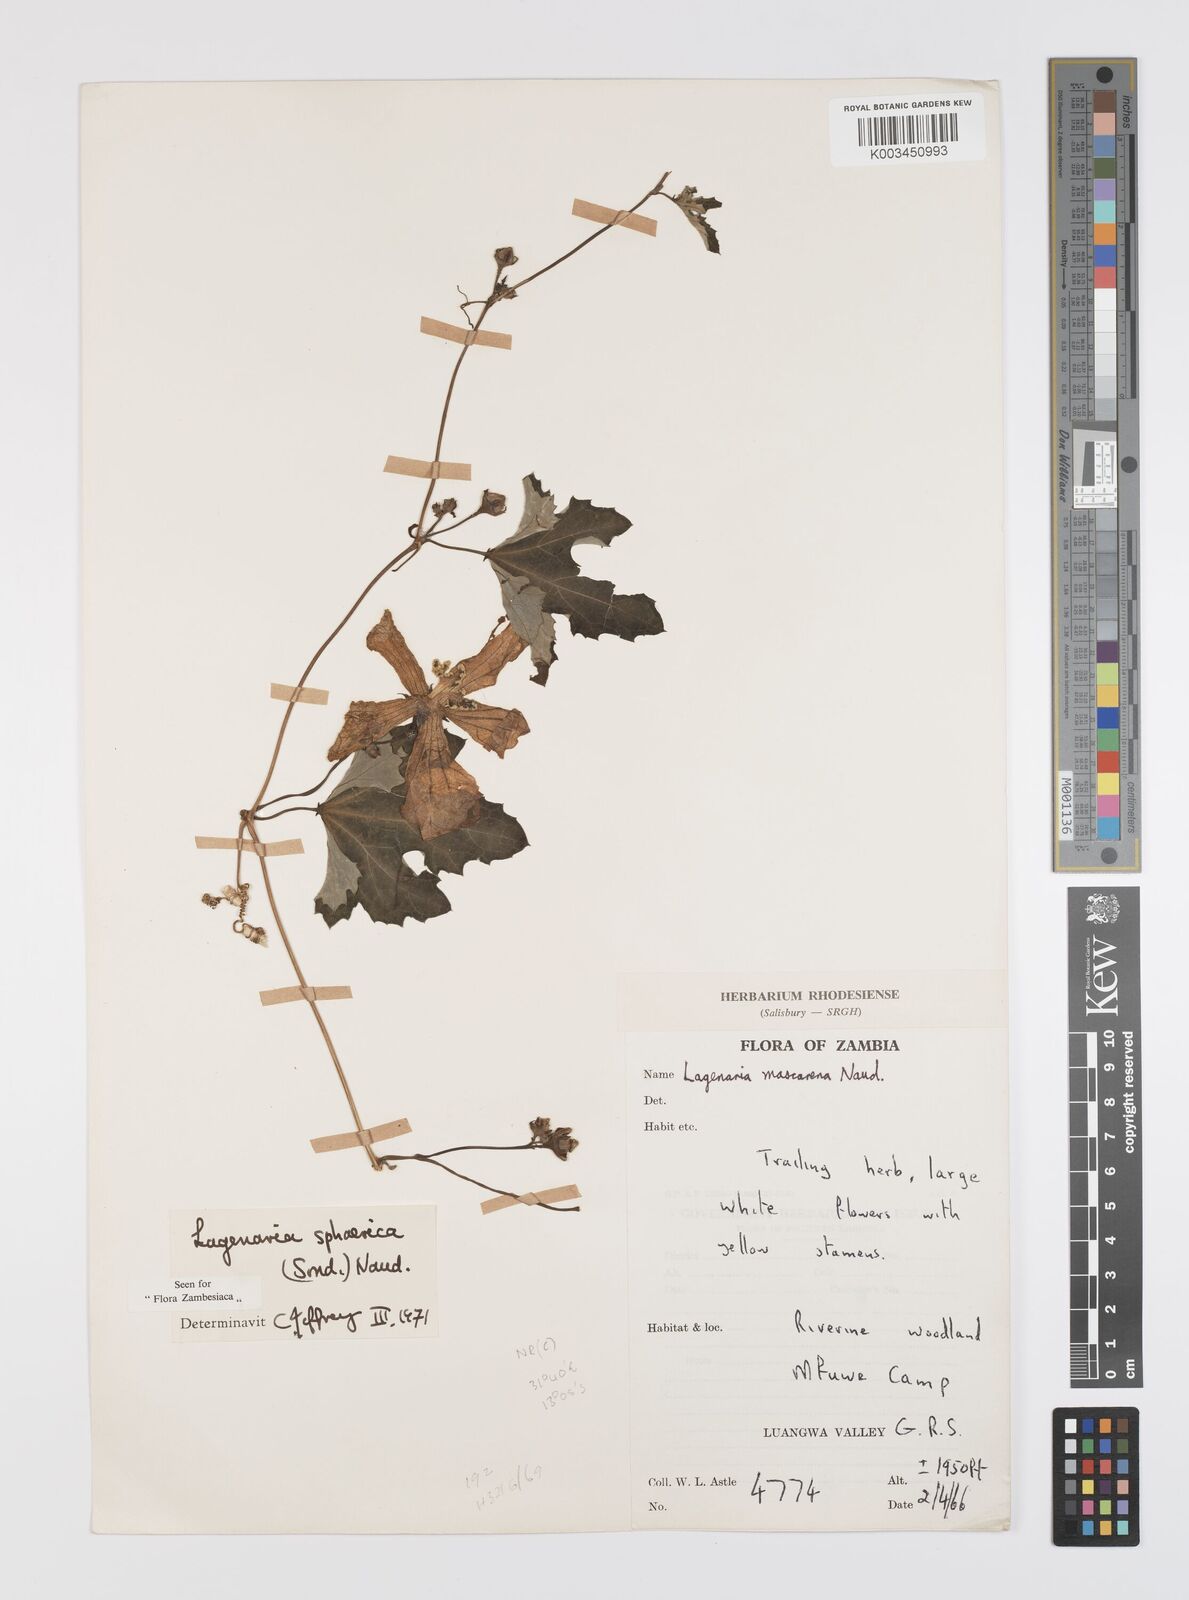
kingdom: Plantae
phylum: Tracheophyta
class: Magnoliopsida
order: Cucurbitales
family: Cucurbitaceae
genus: Lagenaria
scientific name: Lagenaria sphaerica
